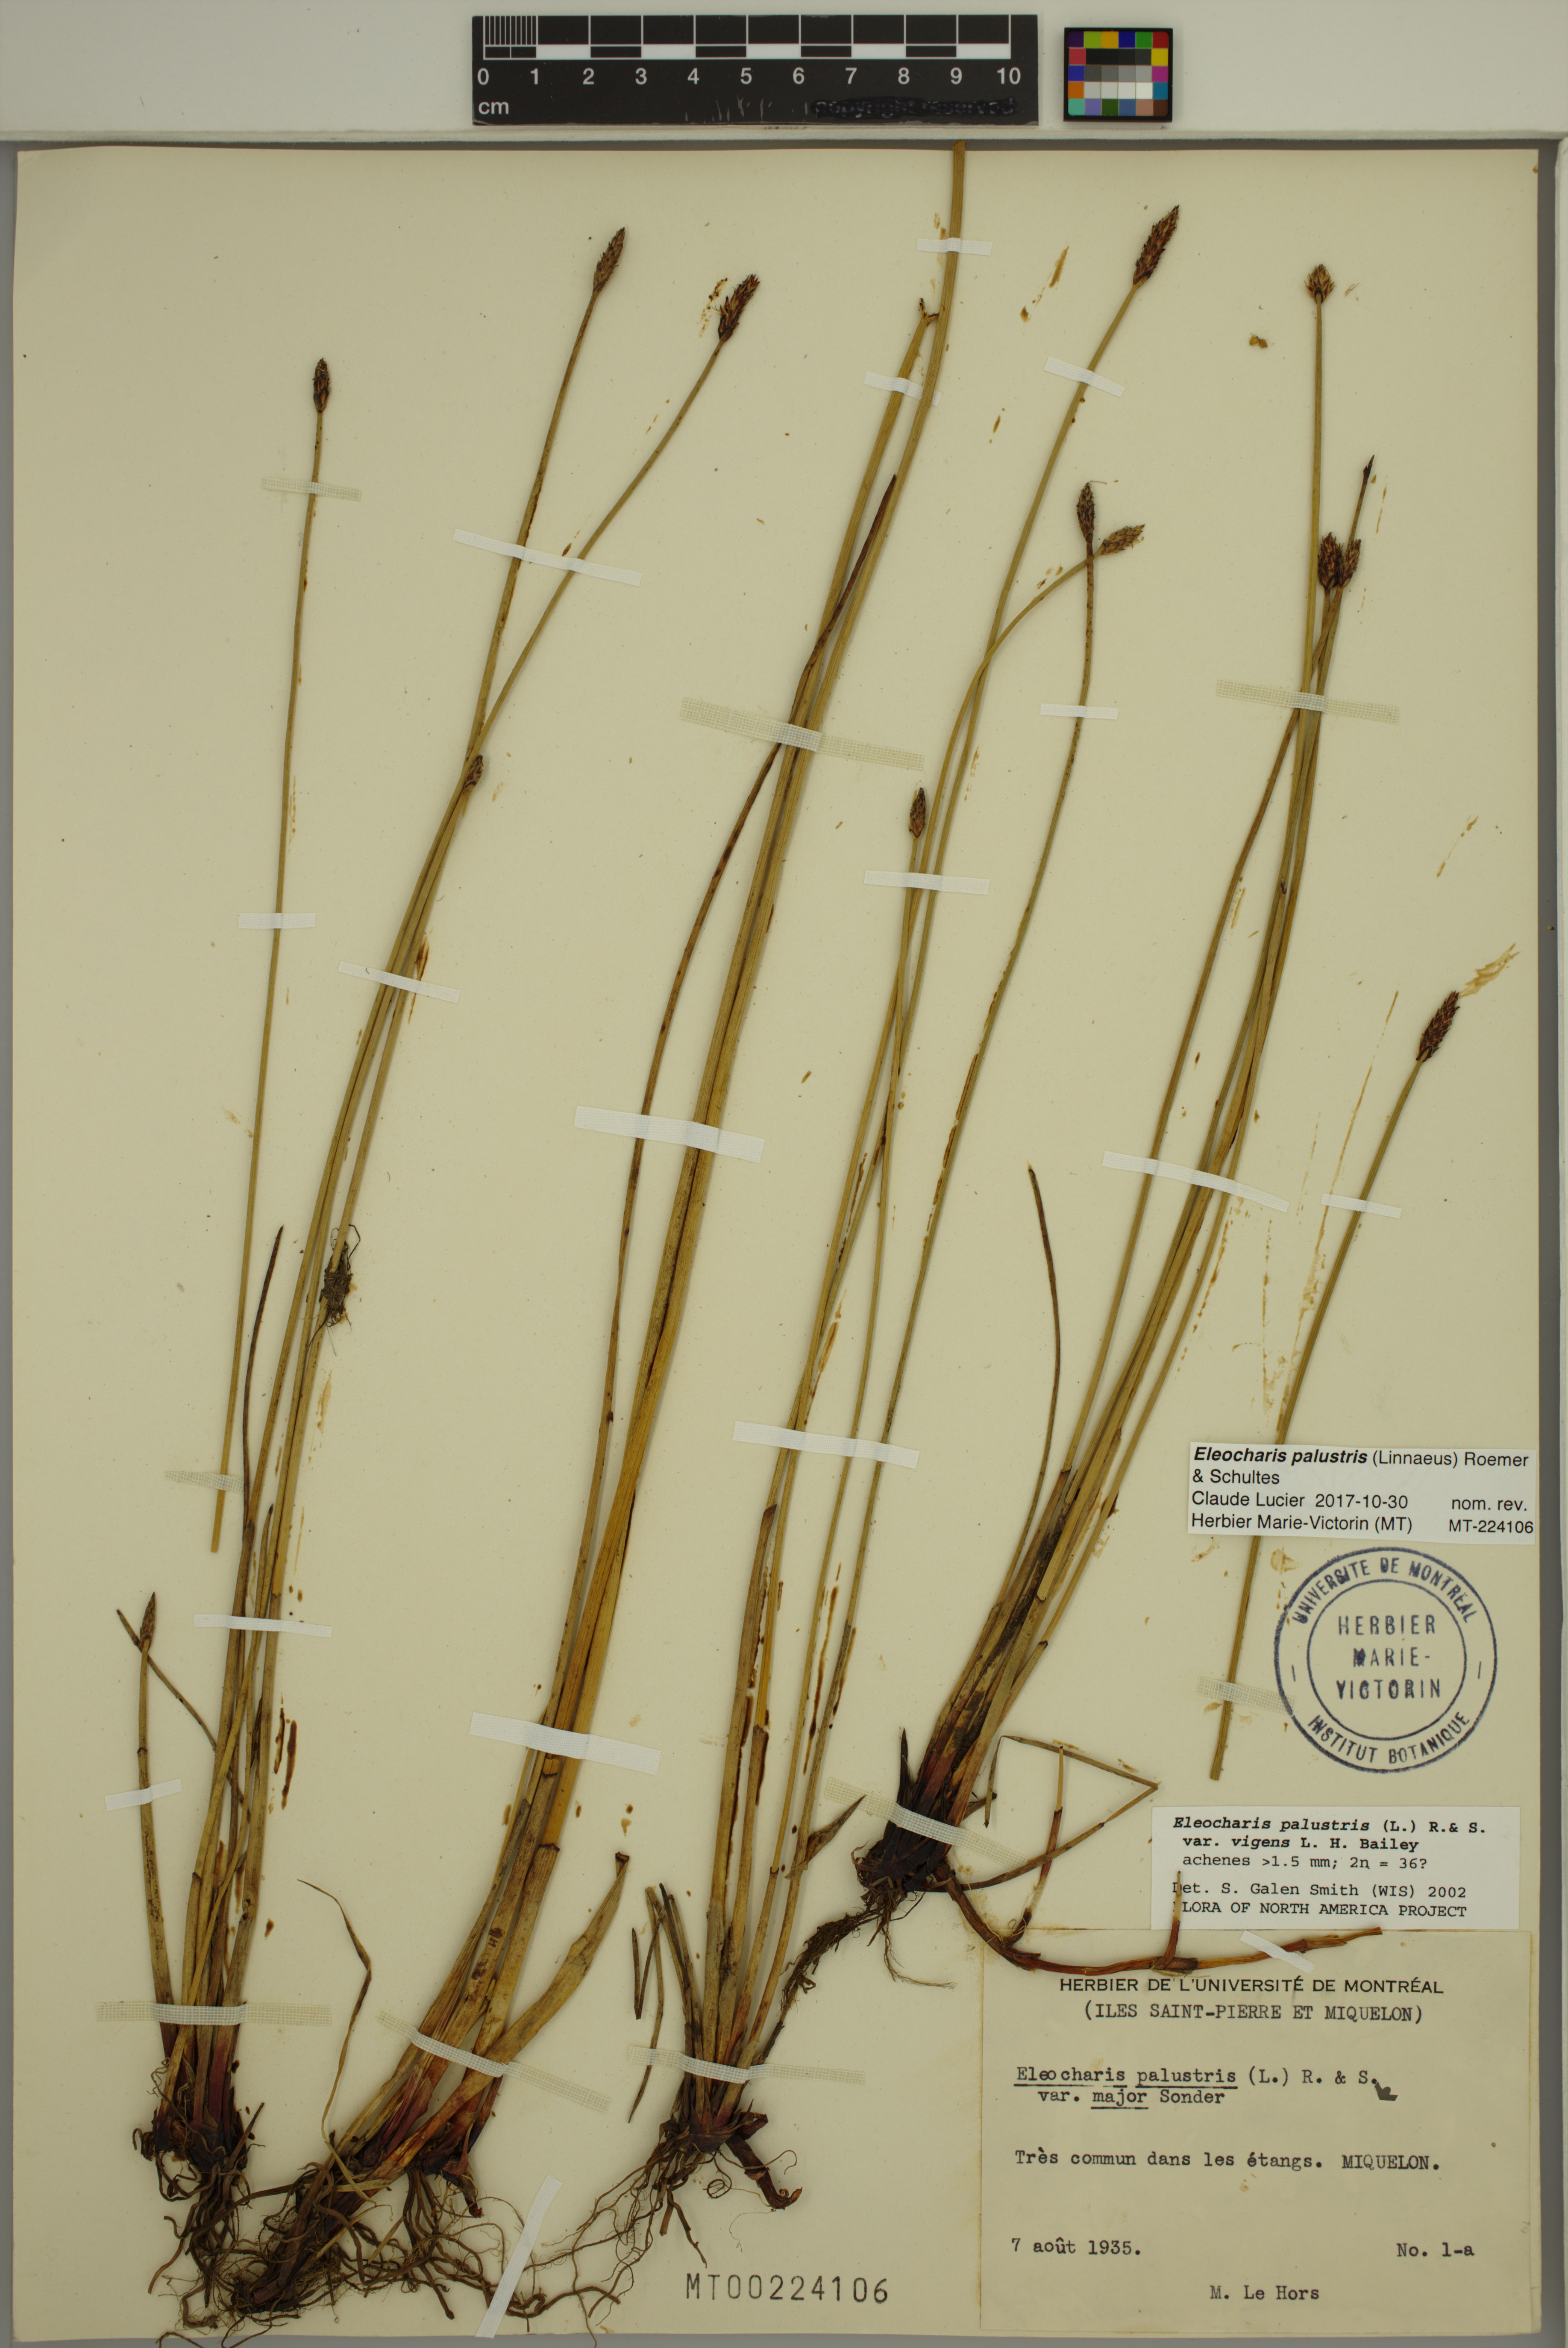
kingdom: Plantae
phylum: Tracheophyta
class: Liliopsida
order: Poales
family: Cyperaceae
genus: Eleocharis
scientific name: Eleocharis palustris
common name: Common spike-rush
